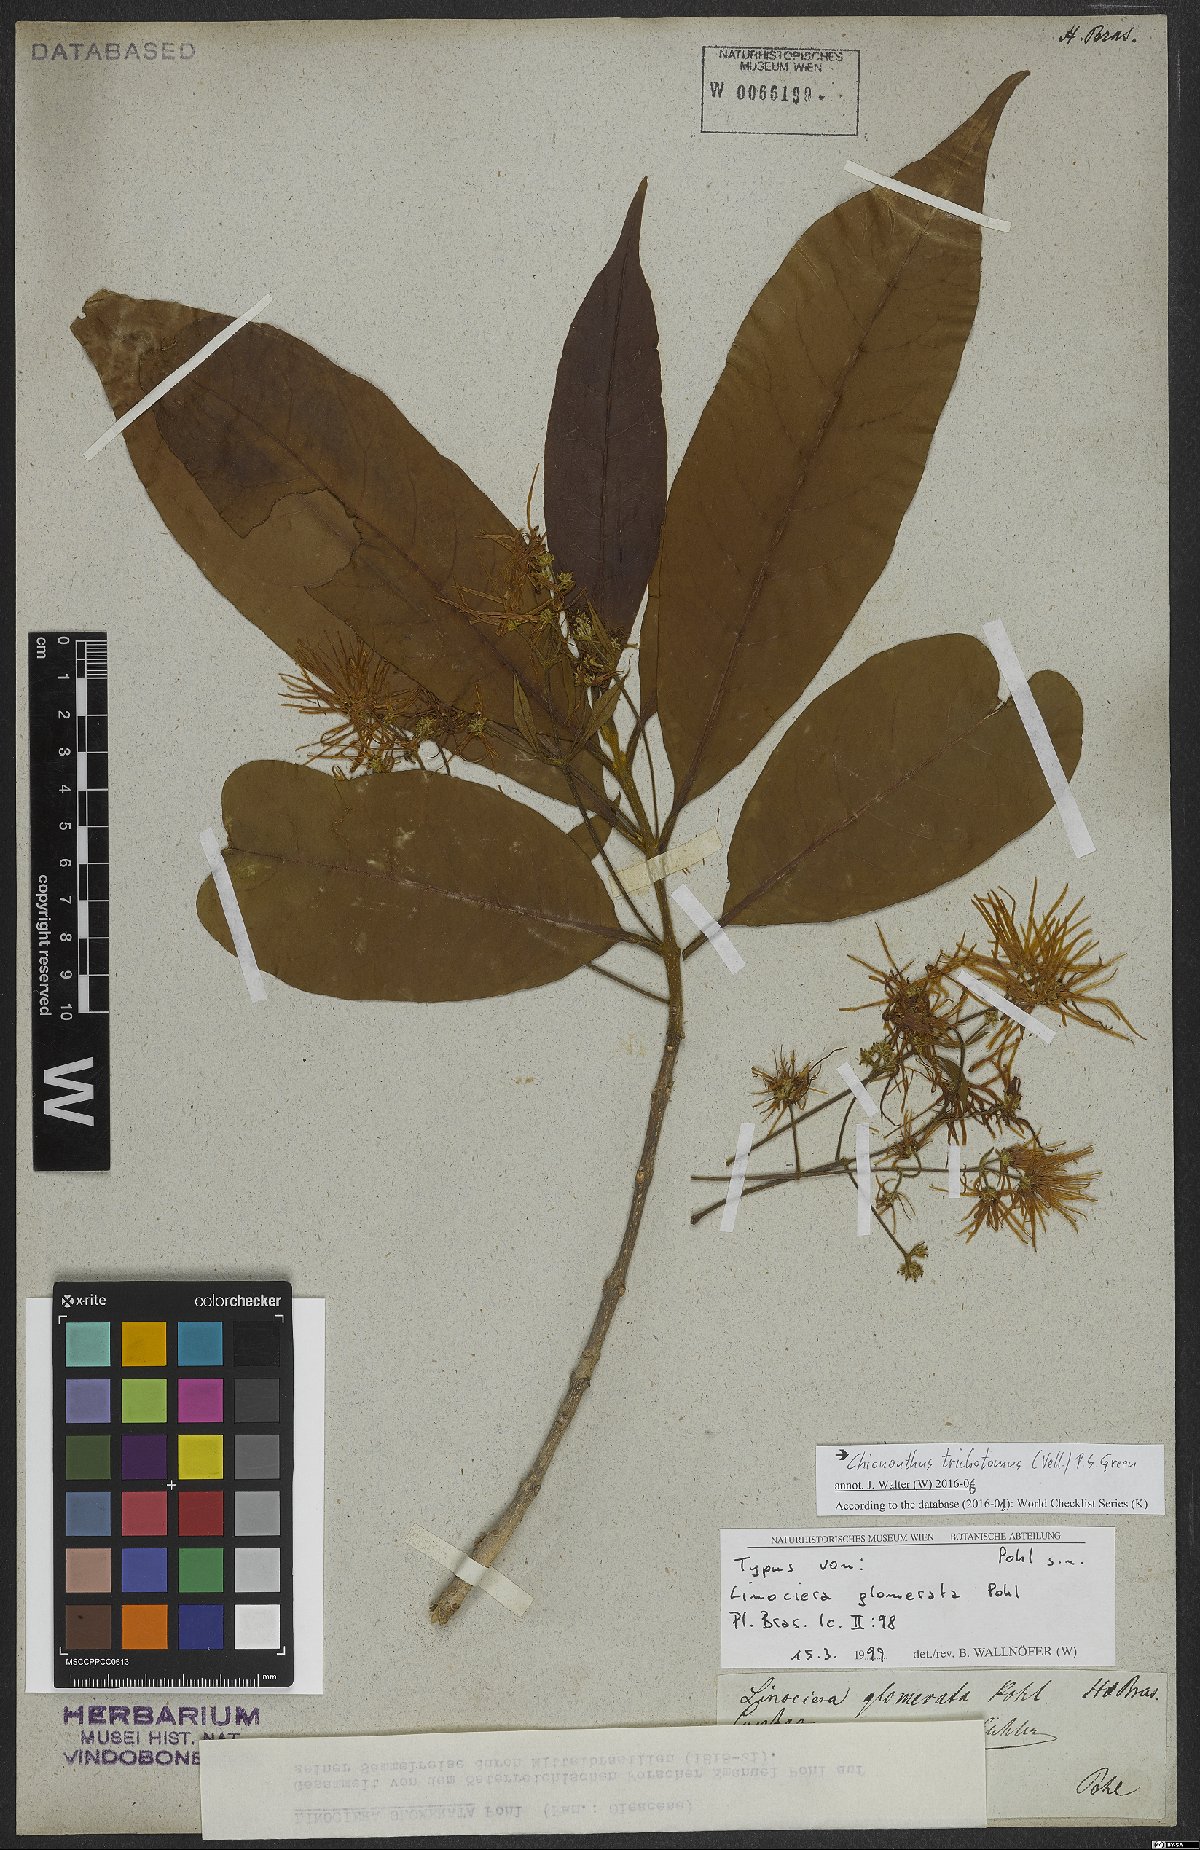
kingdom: Plantae
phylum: Tracheophyta
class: Magnoliopsida
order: Lamiales
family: Oleaceae
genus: Chionanthus
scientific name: Chionanthus trichotomus
